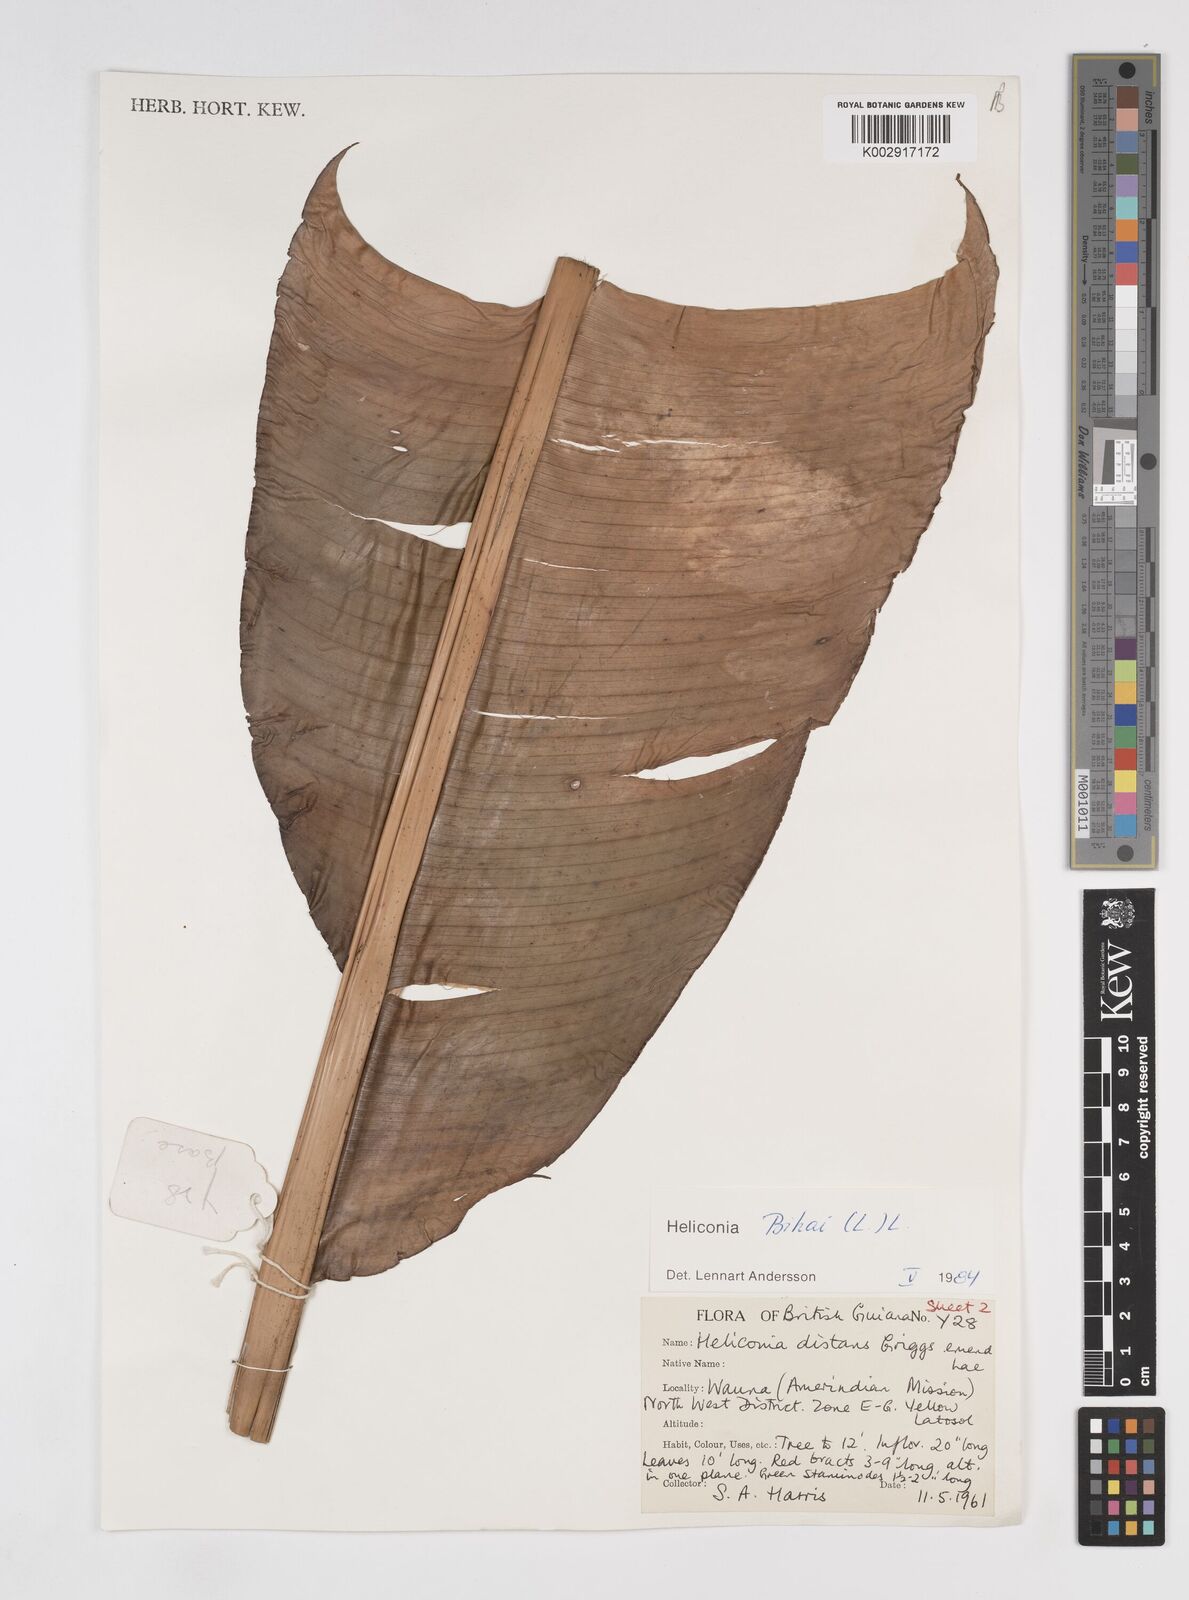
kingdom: Plantae
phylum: Tracheophyta
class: Liliopsida
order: Zingiberales
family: Heliconiaceae
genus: Heliconia
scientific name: Heliconia bihai
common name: Macaw flower
